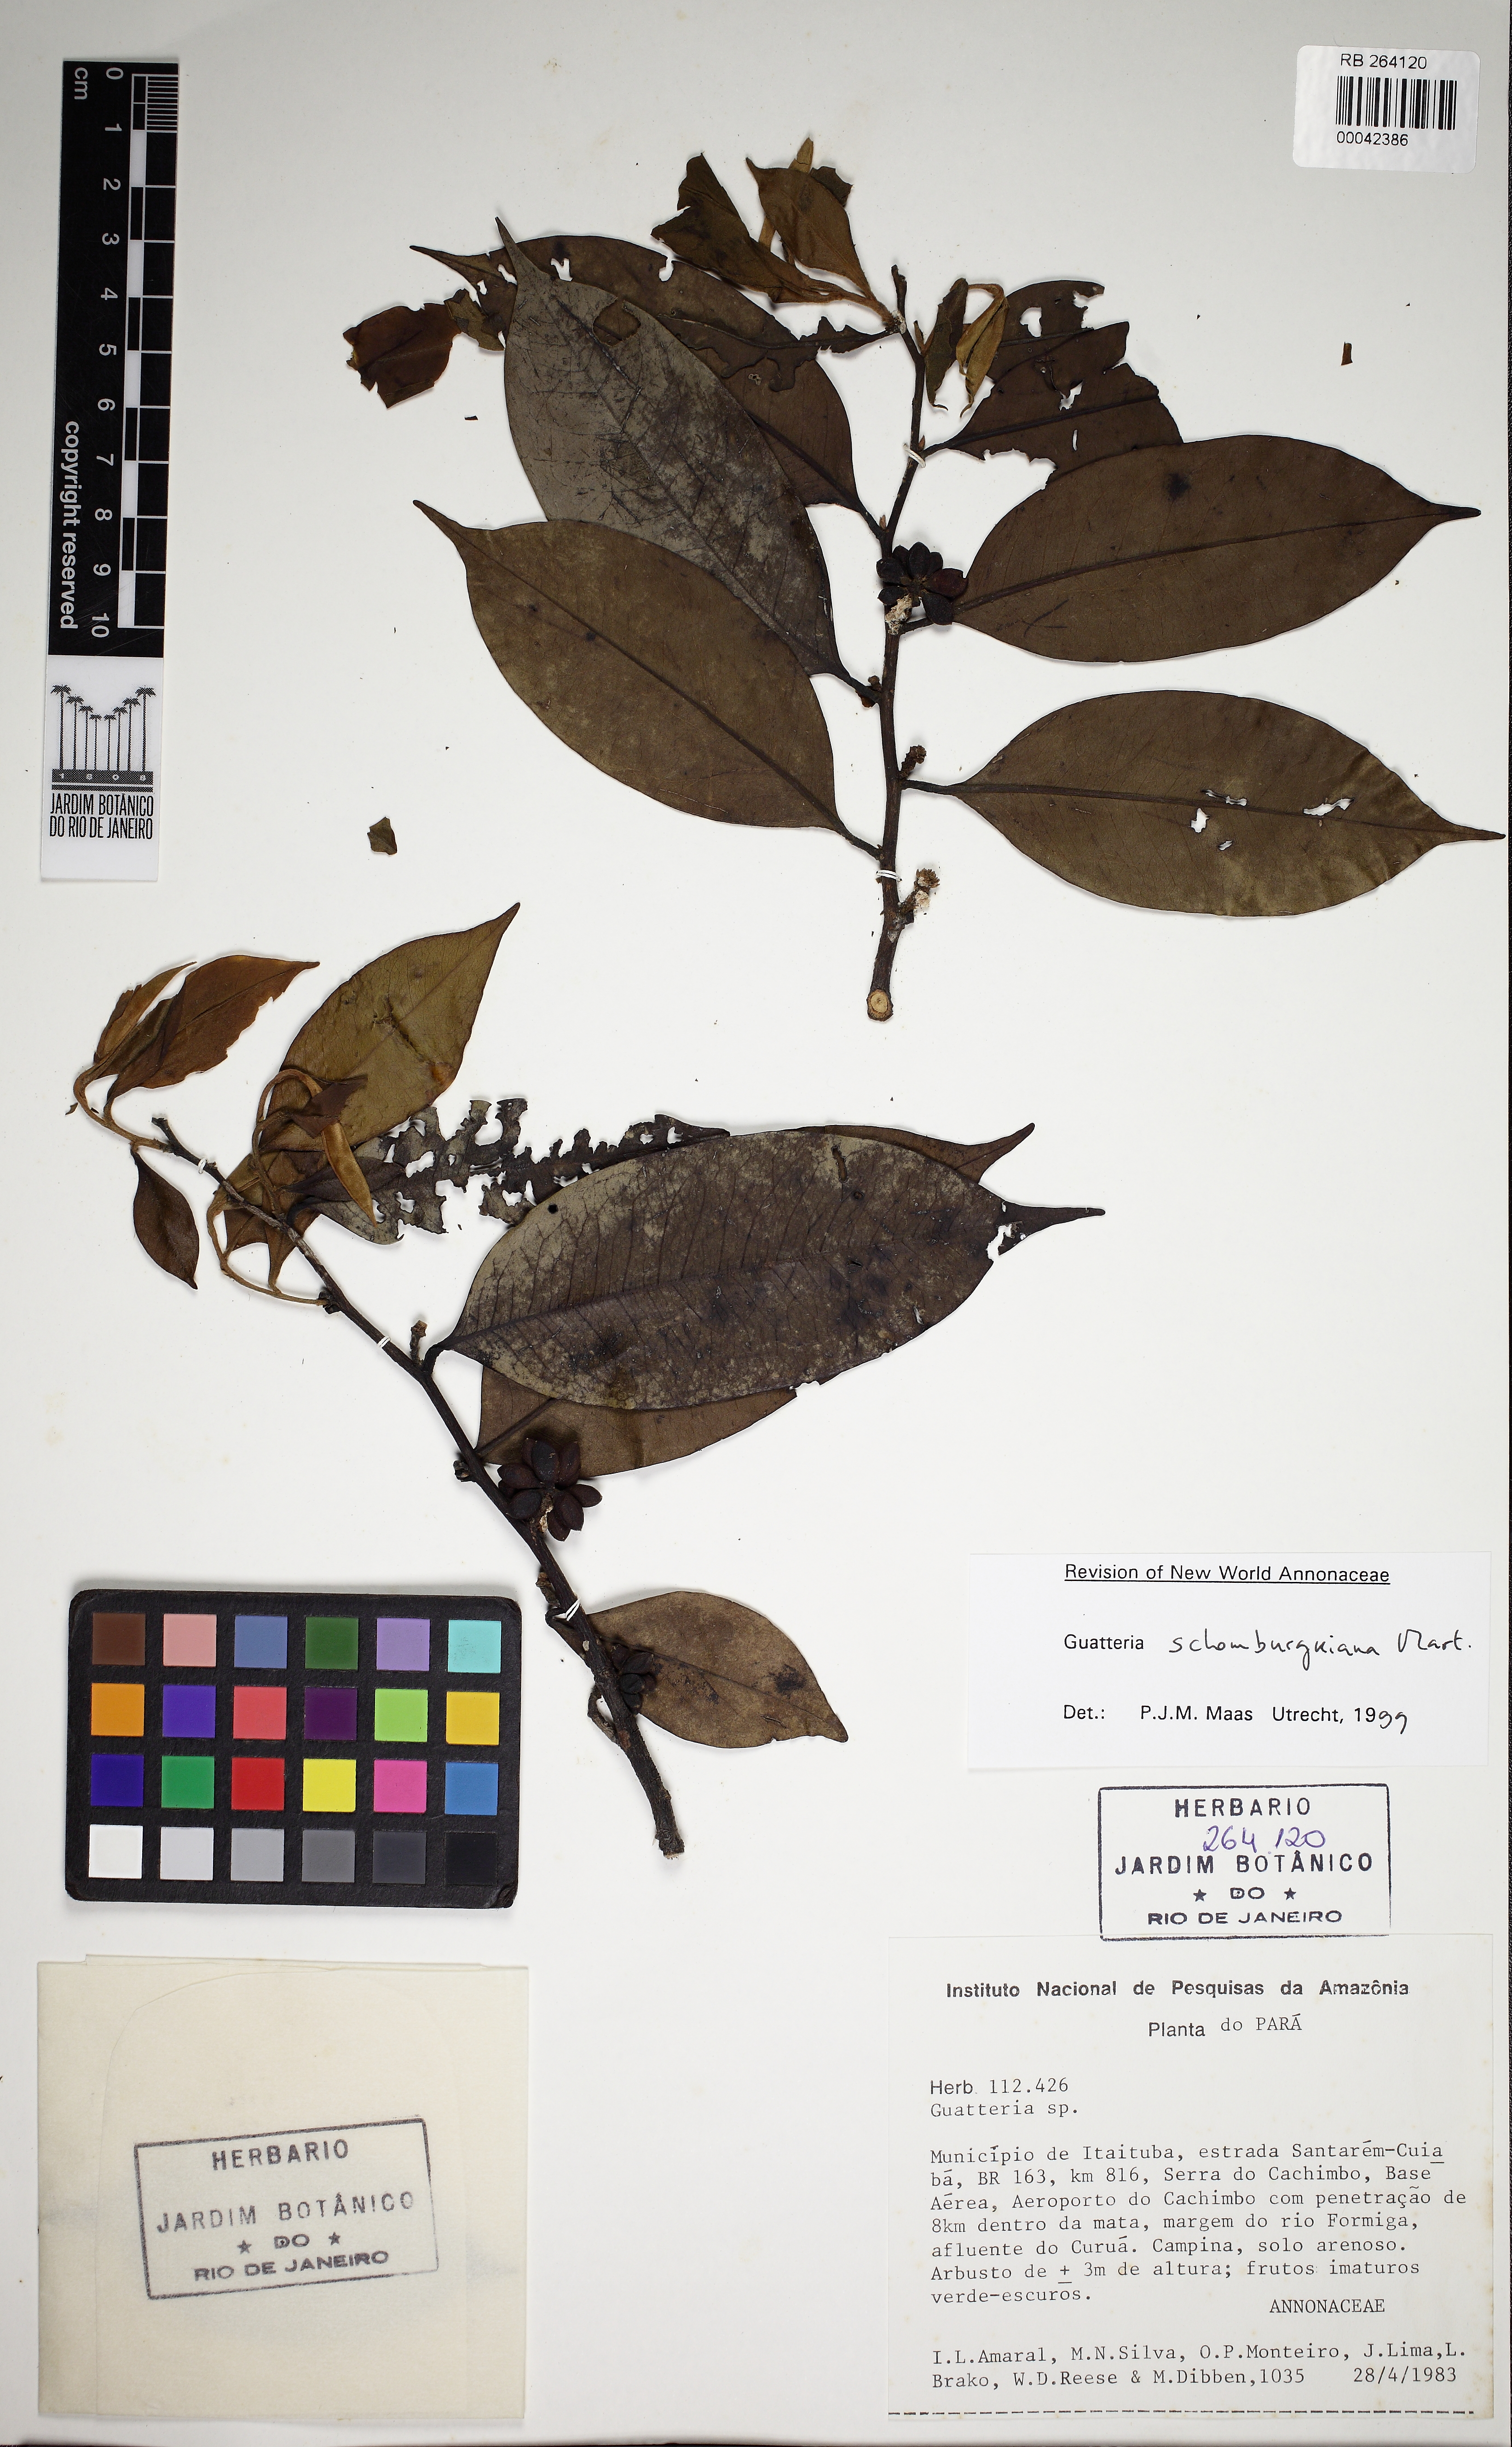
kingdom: Plantae
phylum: Tracheophyta
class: Magnoliopsida
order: Magnoliales
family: Annonaceae
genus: Guatteria
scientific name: Guatteria schomburgkiana
